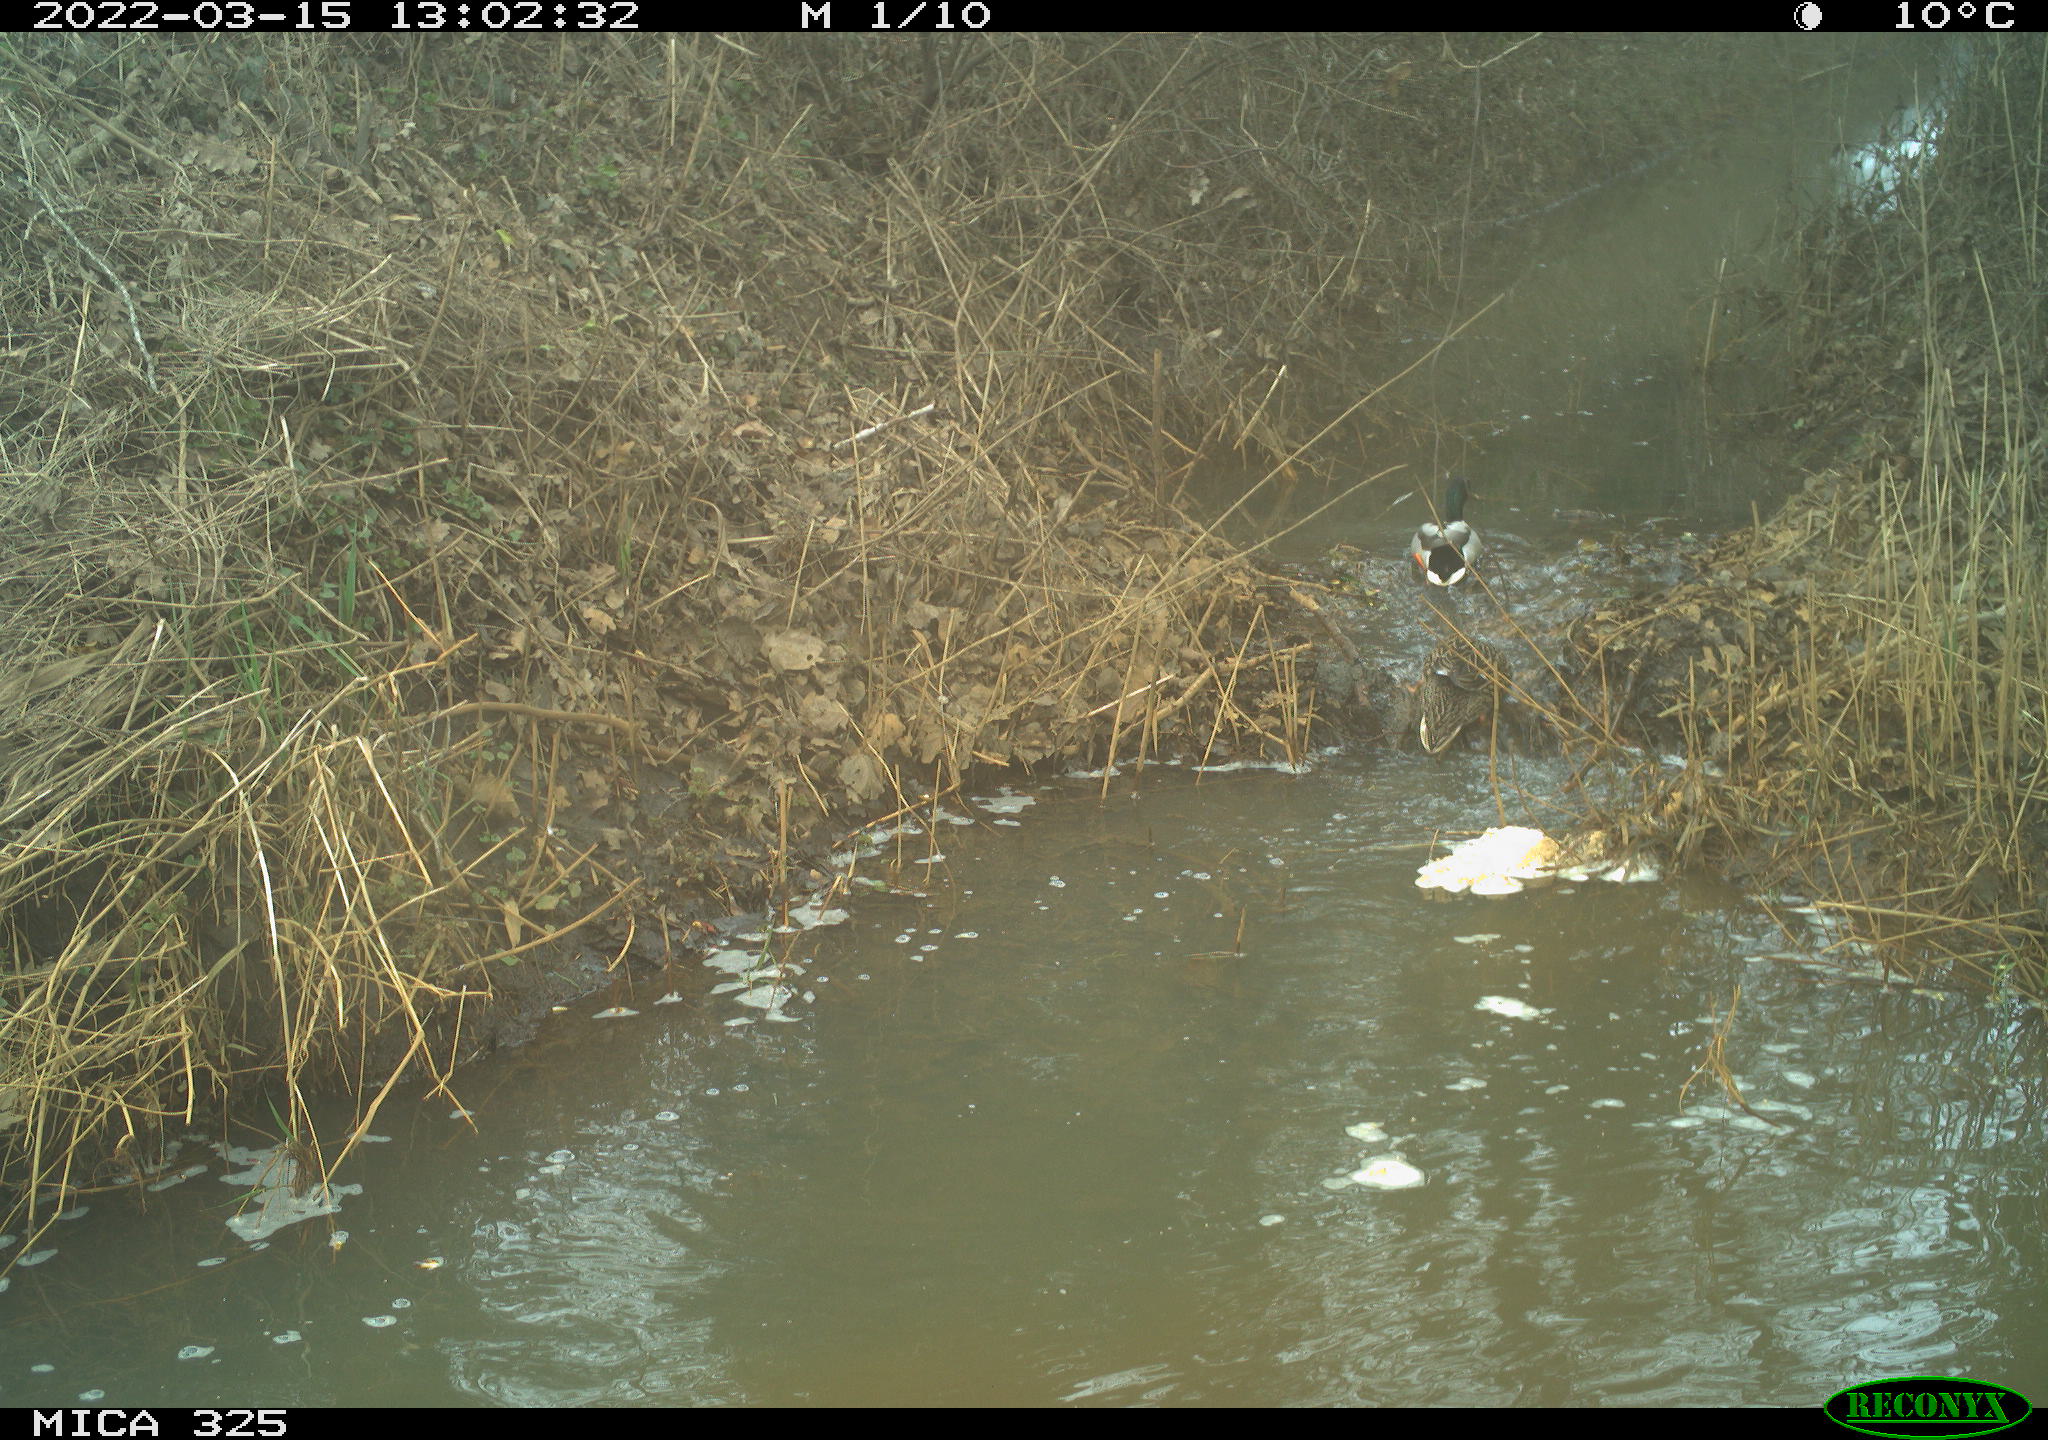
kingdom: Animalia
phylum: Chordata
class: Aves
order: Anseriformes
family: Anatidae
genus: Anas
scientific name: Anas platyrhynchos
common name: Mallard
